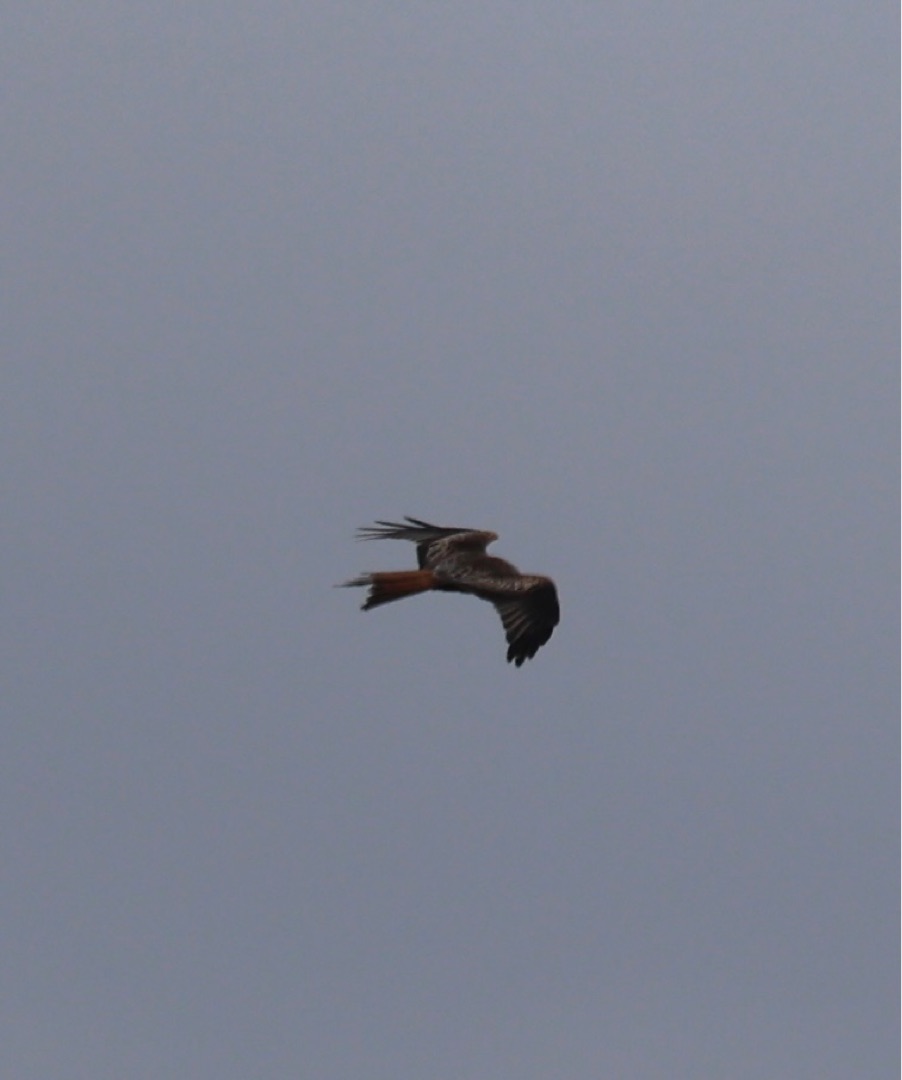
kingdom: Animalia
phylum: Chordata
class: Aves
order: Accipitriformes
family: Accipitridae
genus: Milvus
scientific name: Milvus milvus
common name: Rød glente
